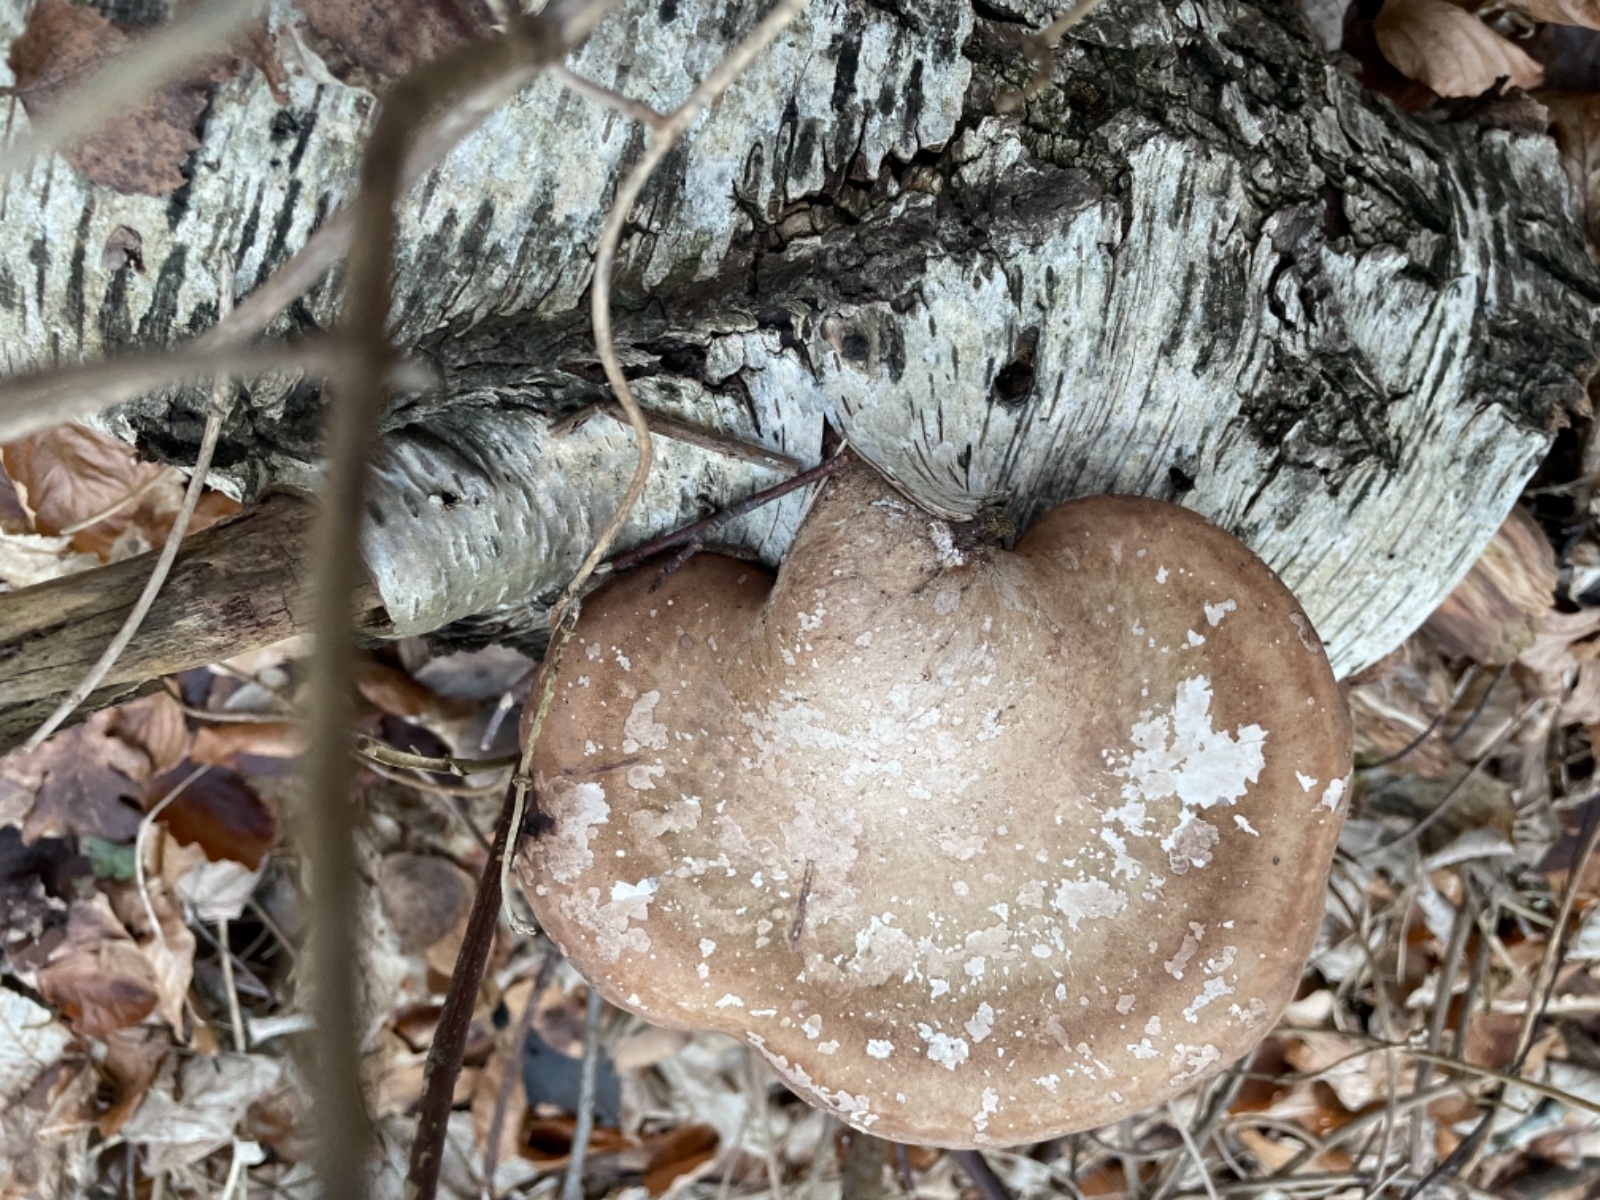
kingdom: Fungi
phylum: Basidiomycota
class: Agaricomycetes
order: Polyporales
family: Fomitopsidaceae
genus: Fomitopsis
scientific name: Fomitopsis betulina
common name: birkeporesvamp
